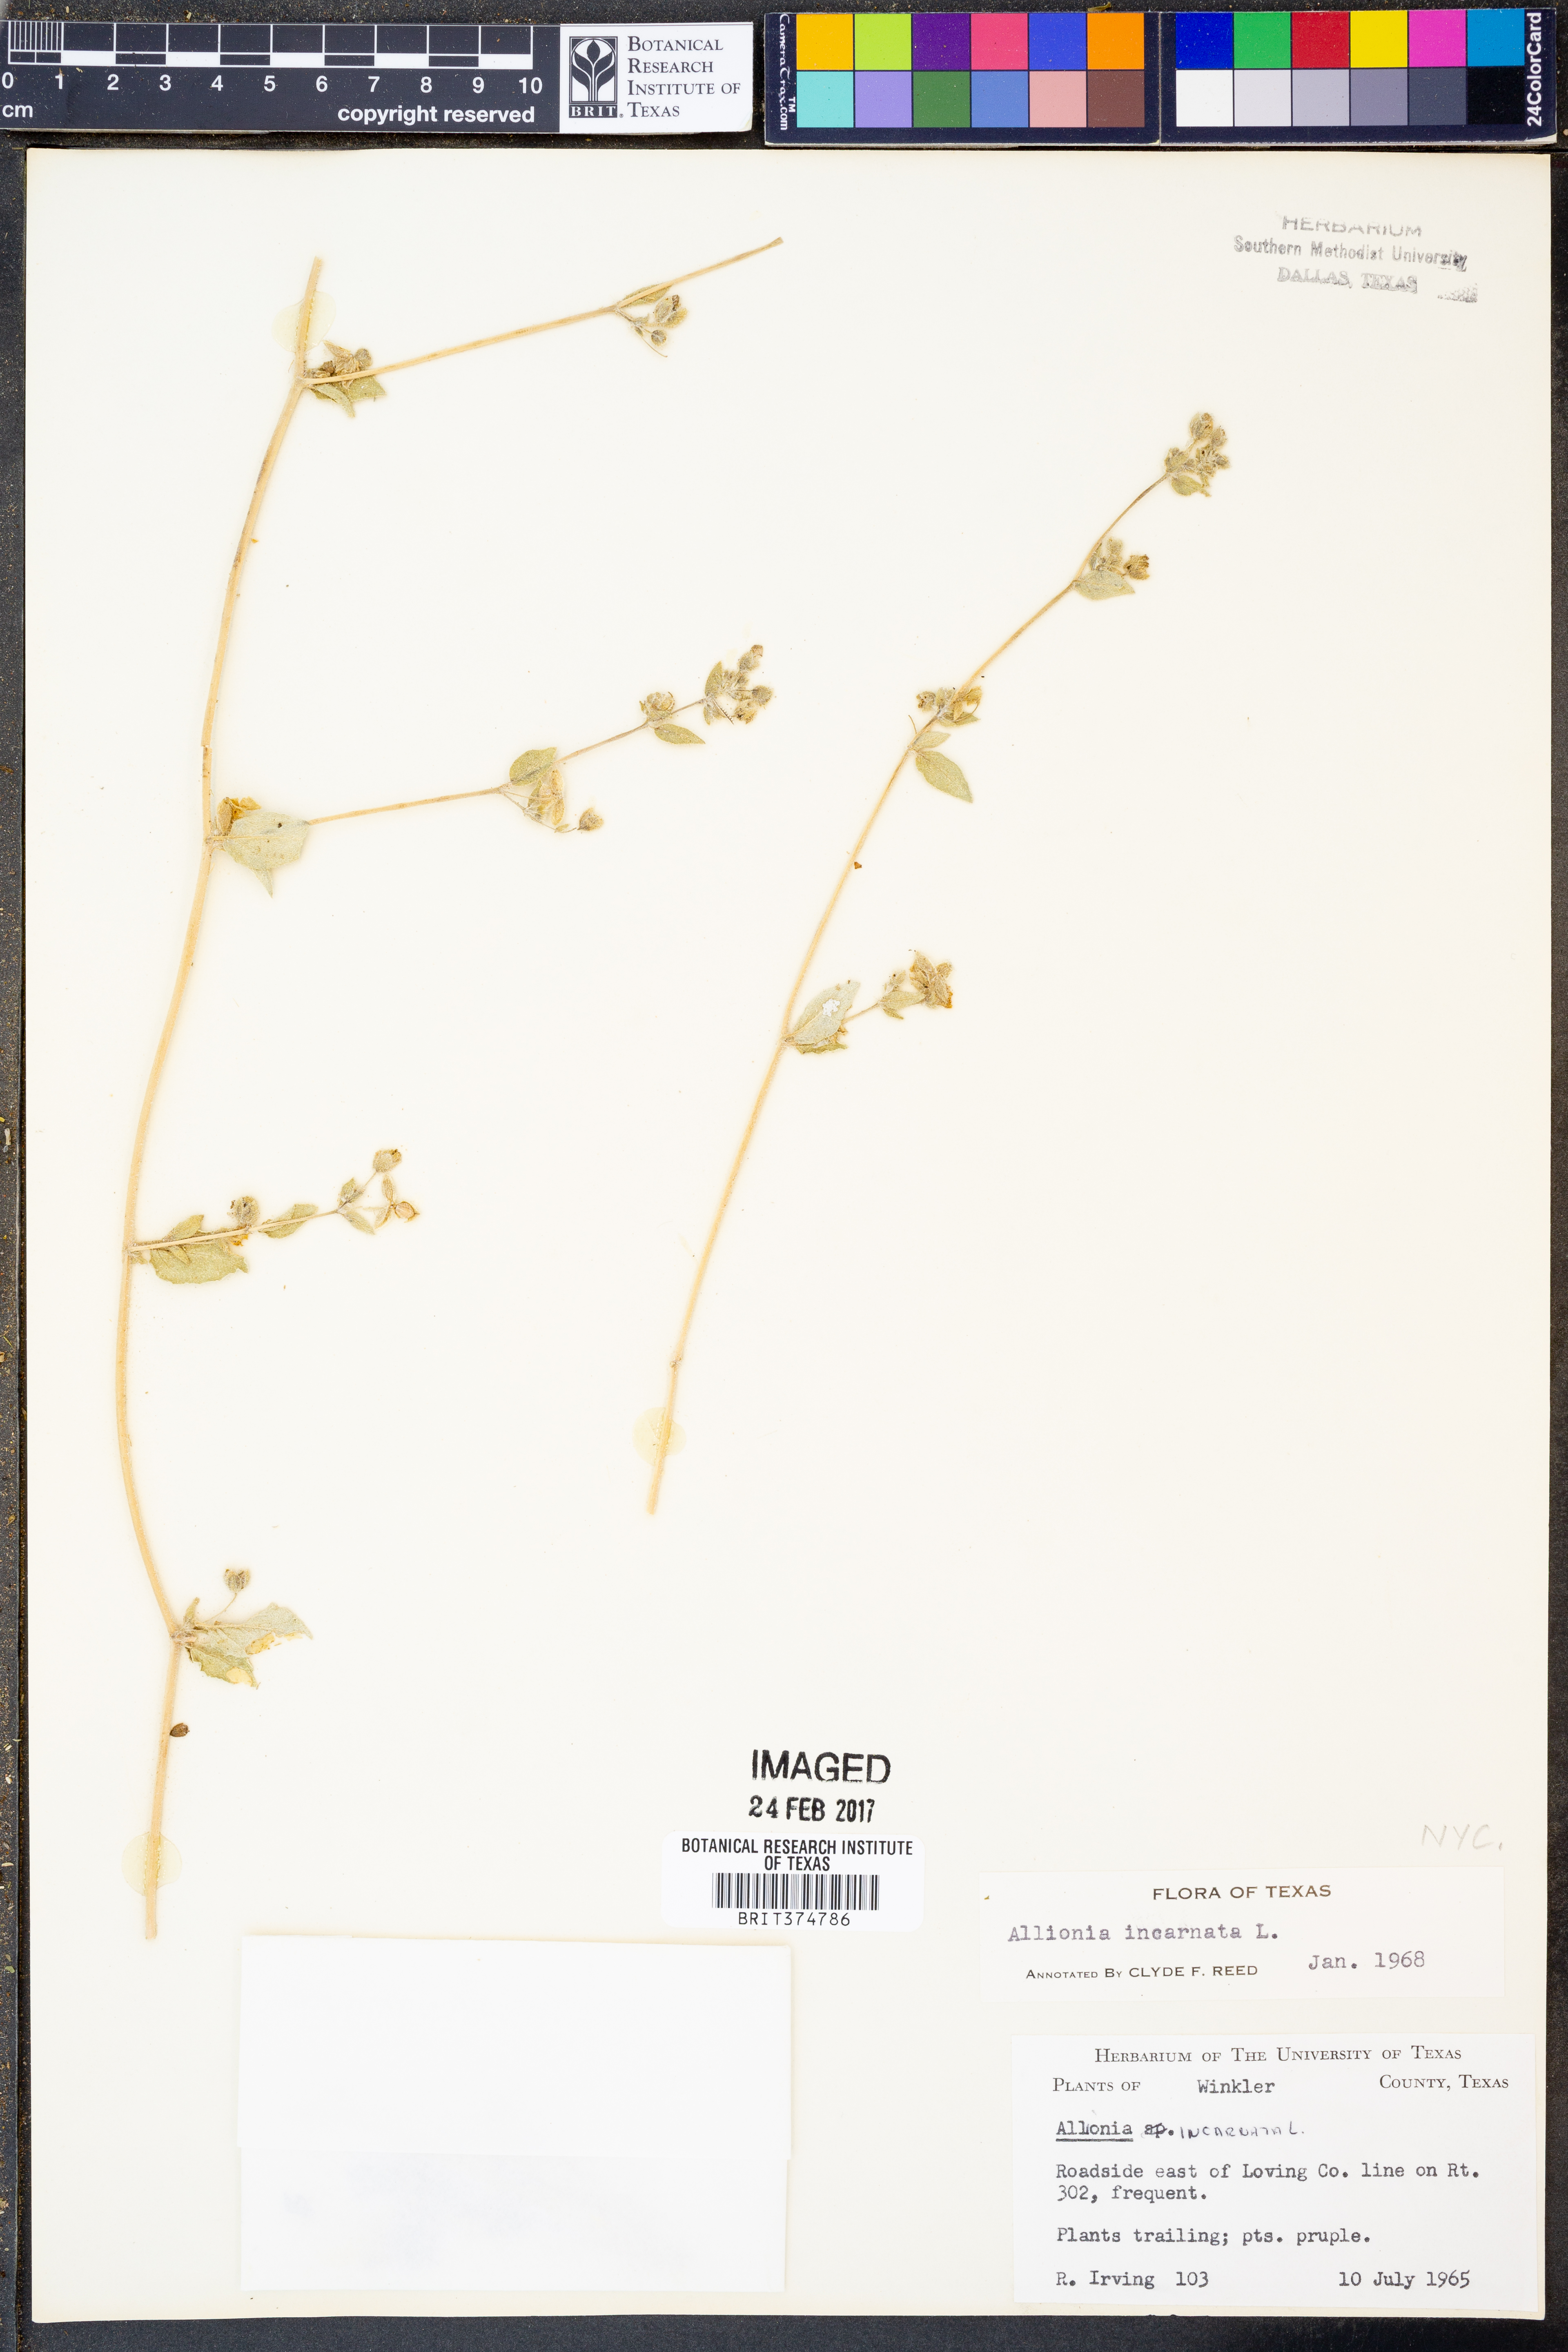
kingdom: Plantae
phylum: Tracheophyta
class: Magnoliopsida
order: Caryophyllales
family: Nyctaginaceae
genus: Allionia
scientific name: Allionia incarnata
